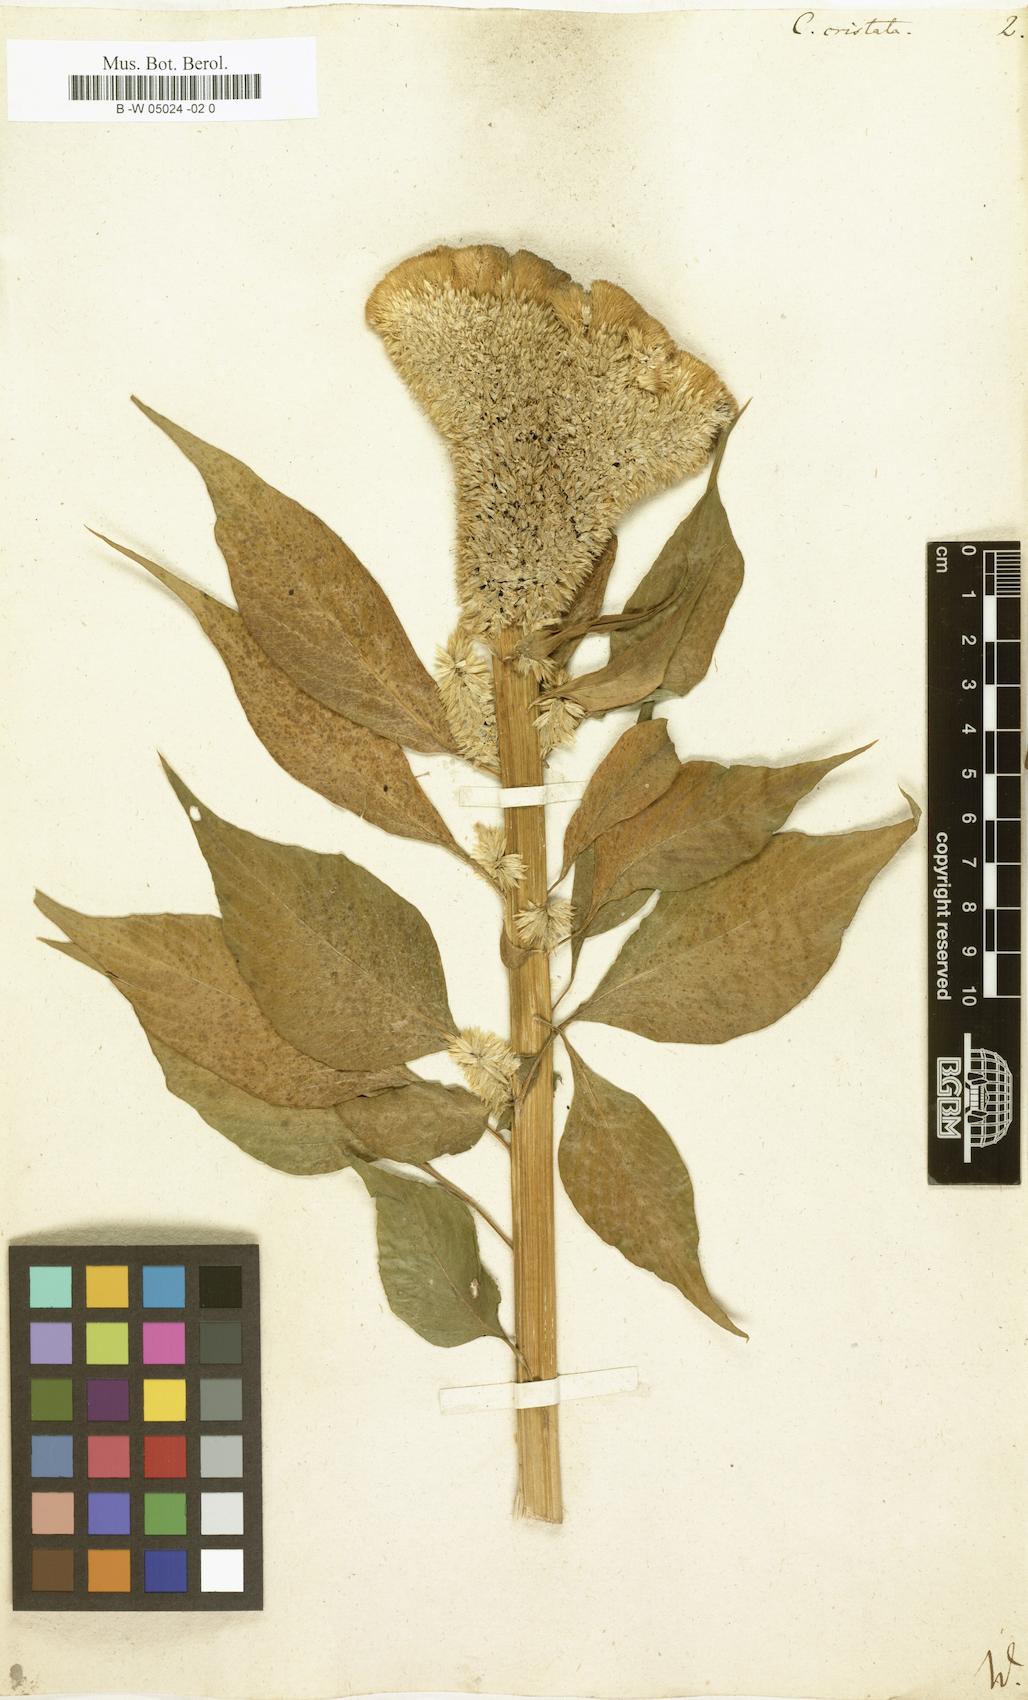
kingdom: Plantae
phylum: Tracheophyta
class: Magnoliopsida
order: Caryophyllales
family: Amaranthaceae
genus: Celosia
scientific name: Celosia argentea
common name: Feather cockscomb
